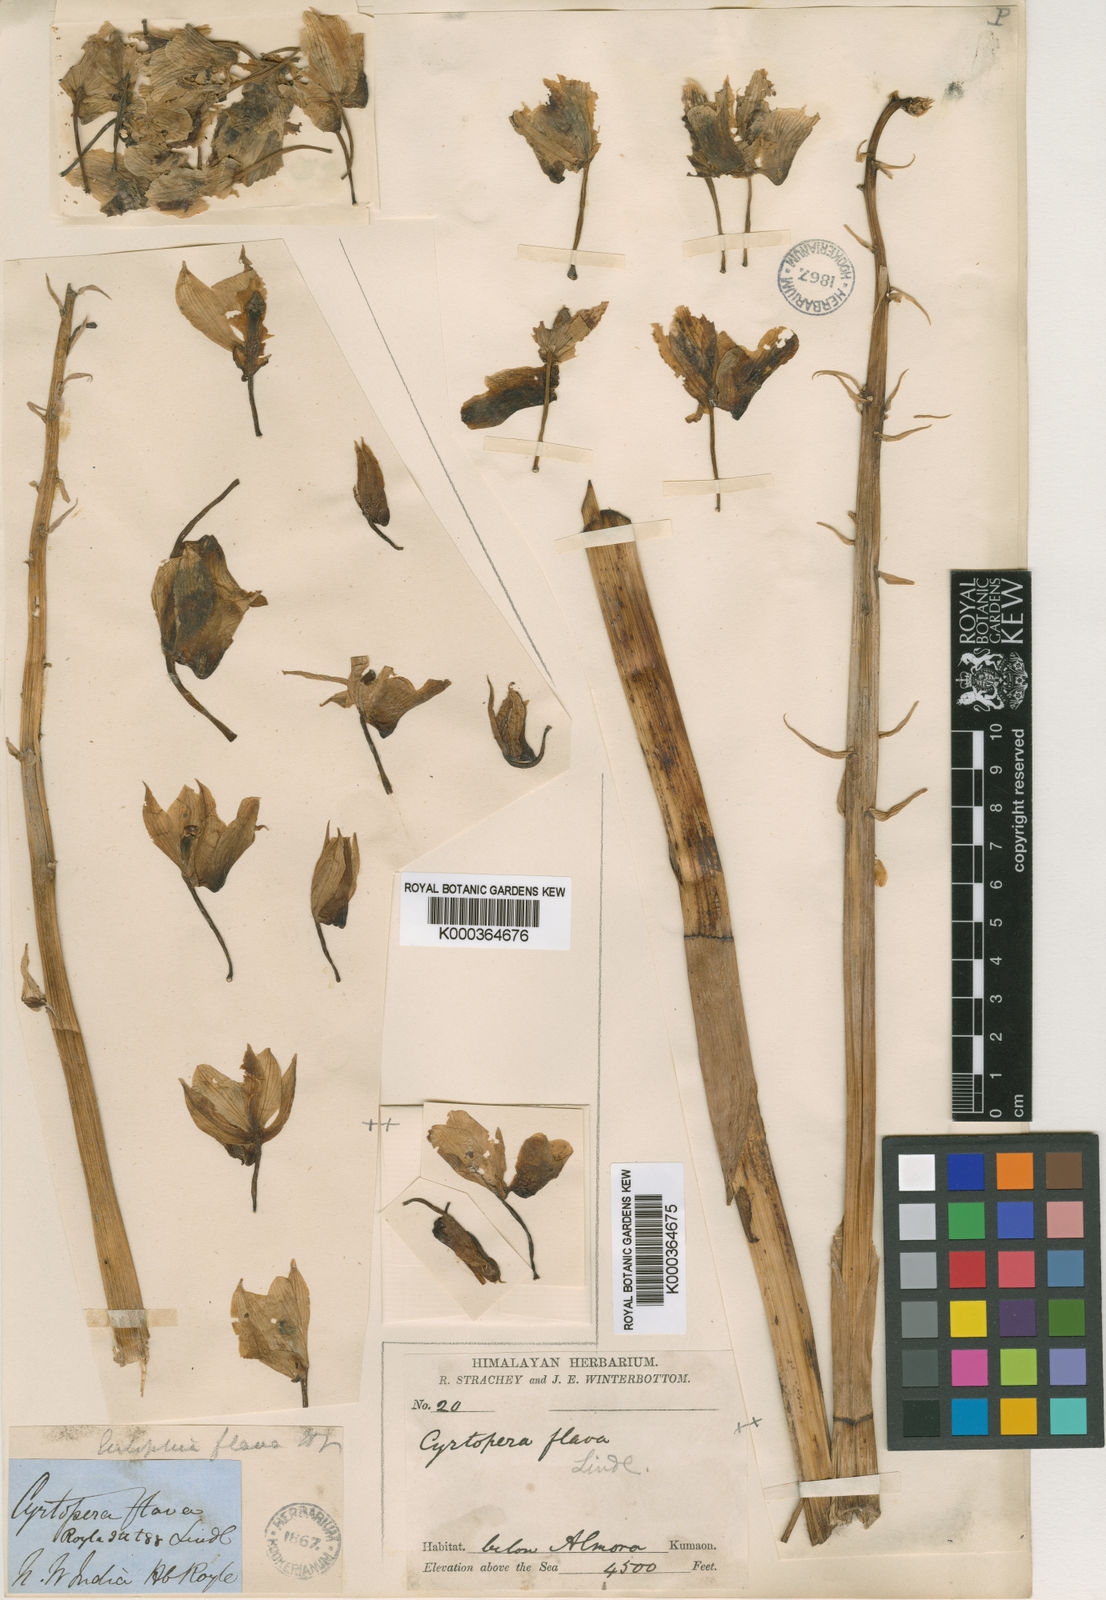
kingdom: Plantae
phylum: Tracheophyta
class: Liliopsida
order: Asparagales
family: Orchidaceae
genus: Eulophia
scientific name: Eulophia flava
